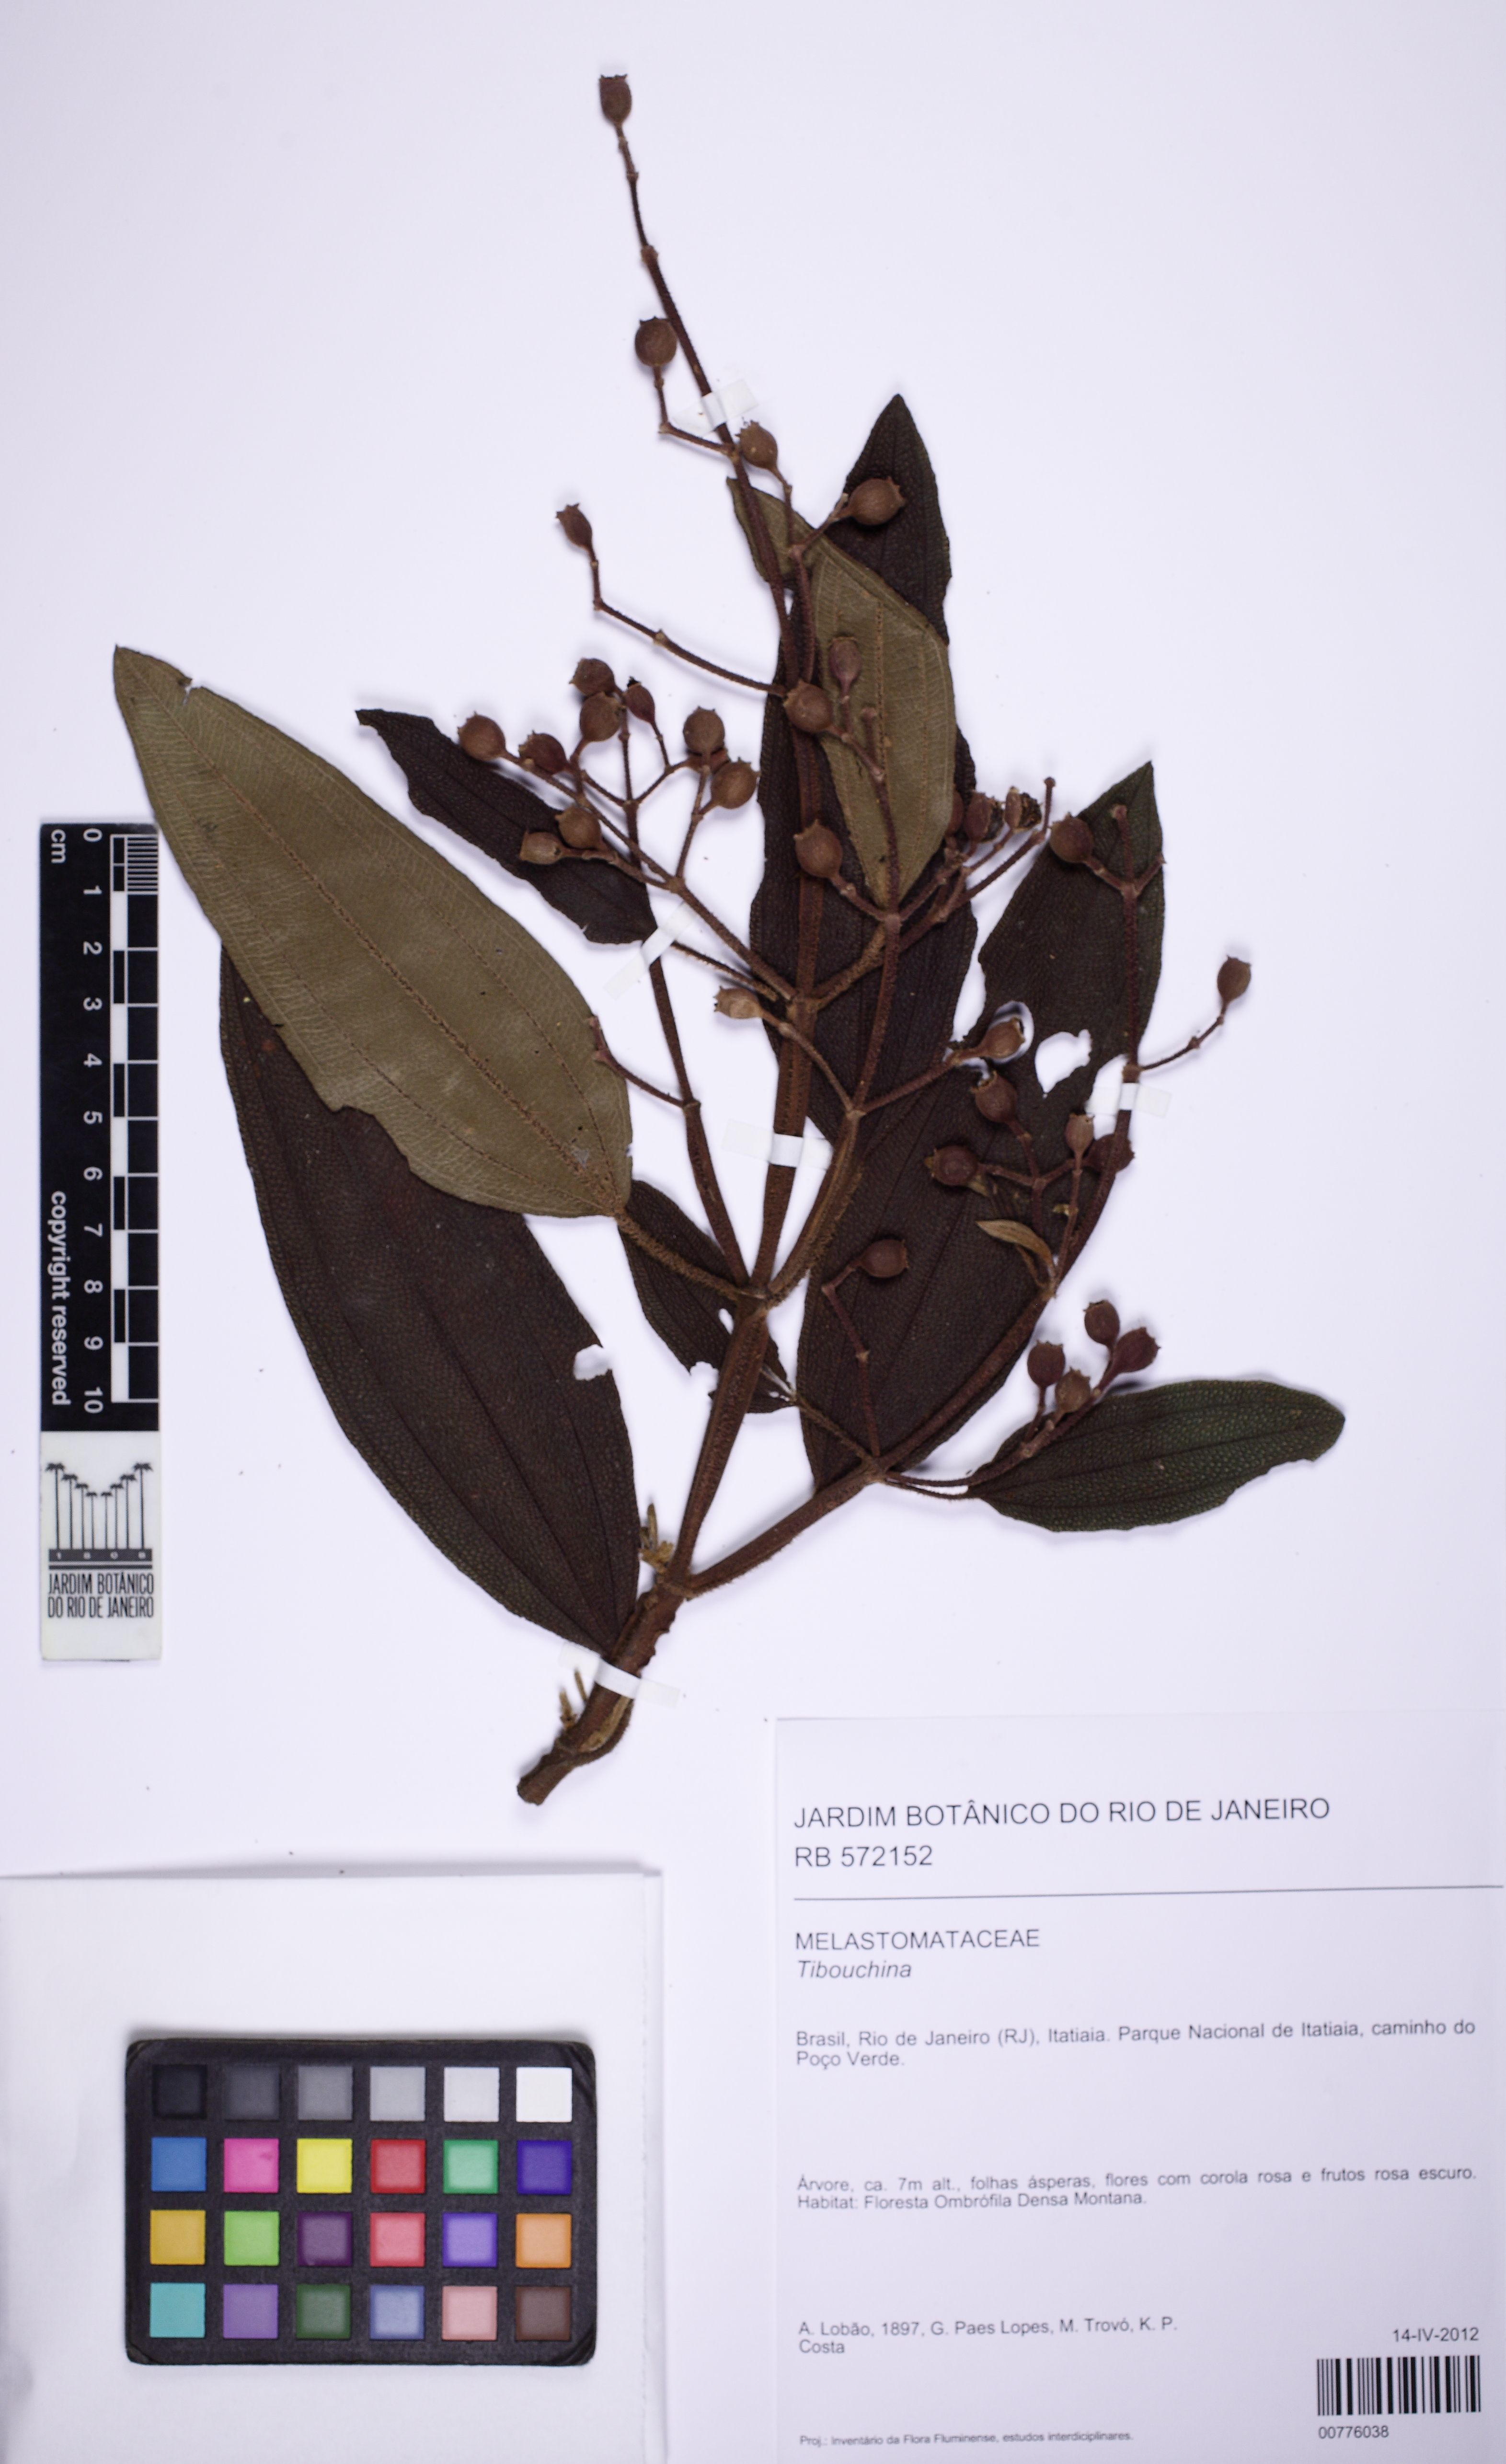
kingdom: Plantae
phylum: Tracheophyta
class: Magnoliopsida
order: Myrtales
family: Melastomataceae
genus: Tibouchina
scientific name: Tibouchina
